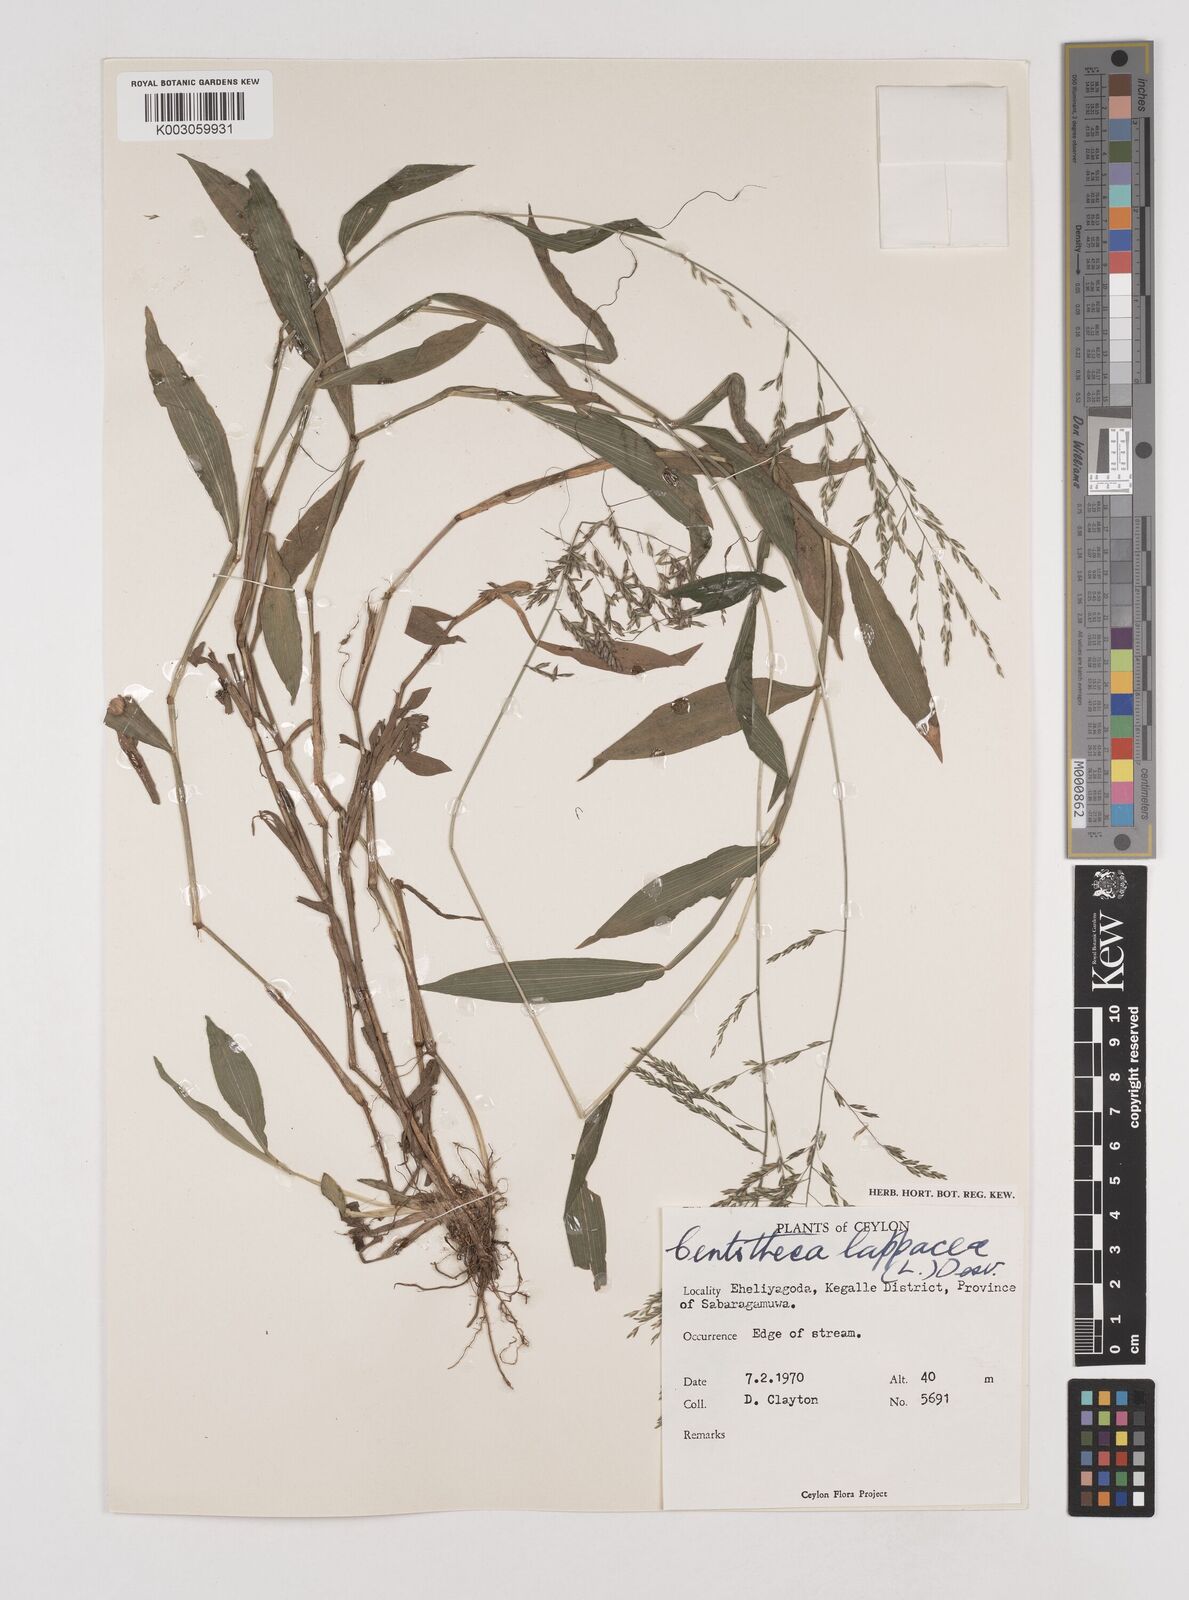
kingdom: Plantae
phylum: Tracheophyta
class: Liliopsida
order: Poales
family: Poaceae
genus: Centotheca
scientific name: Centotheca lappacea
